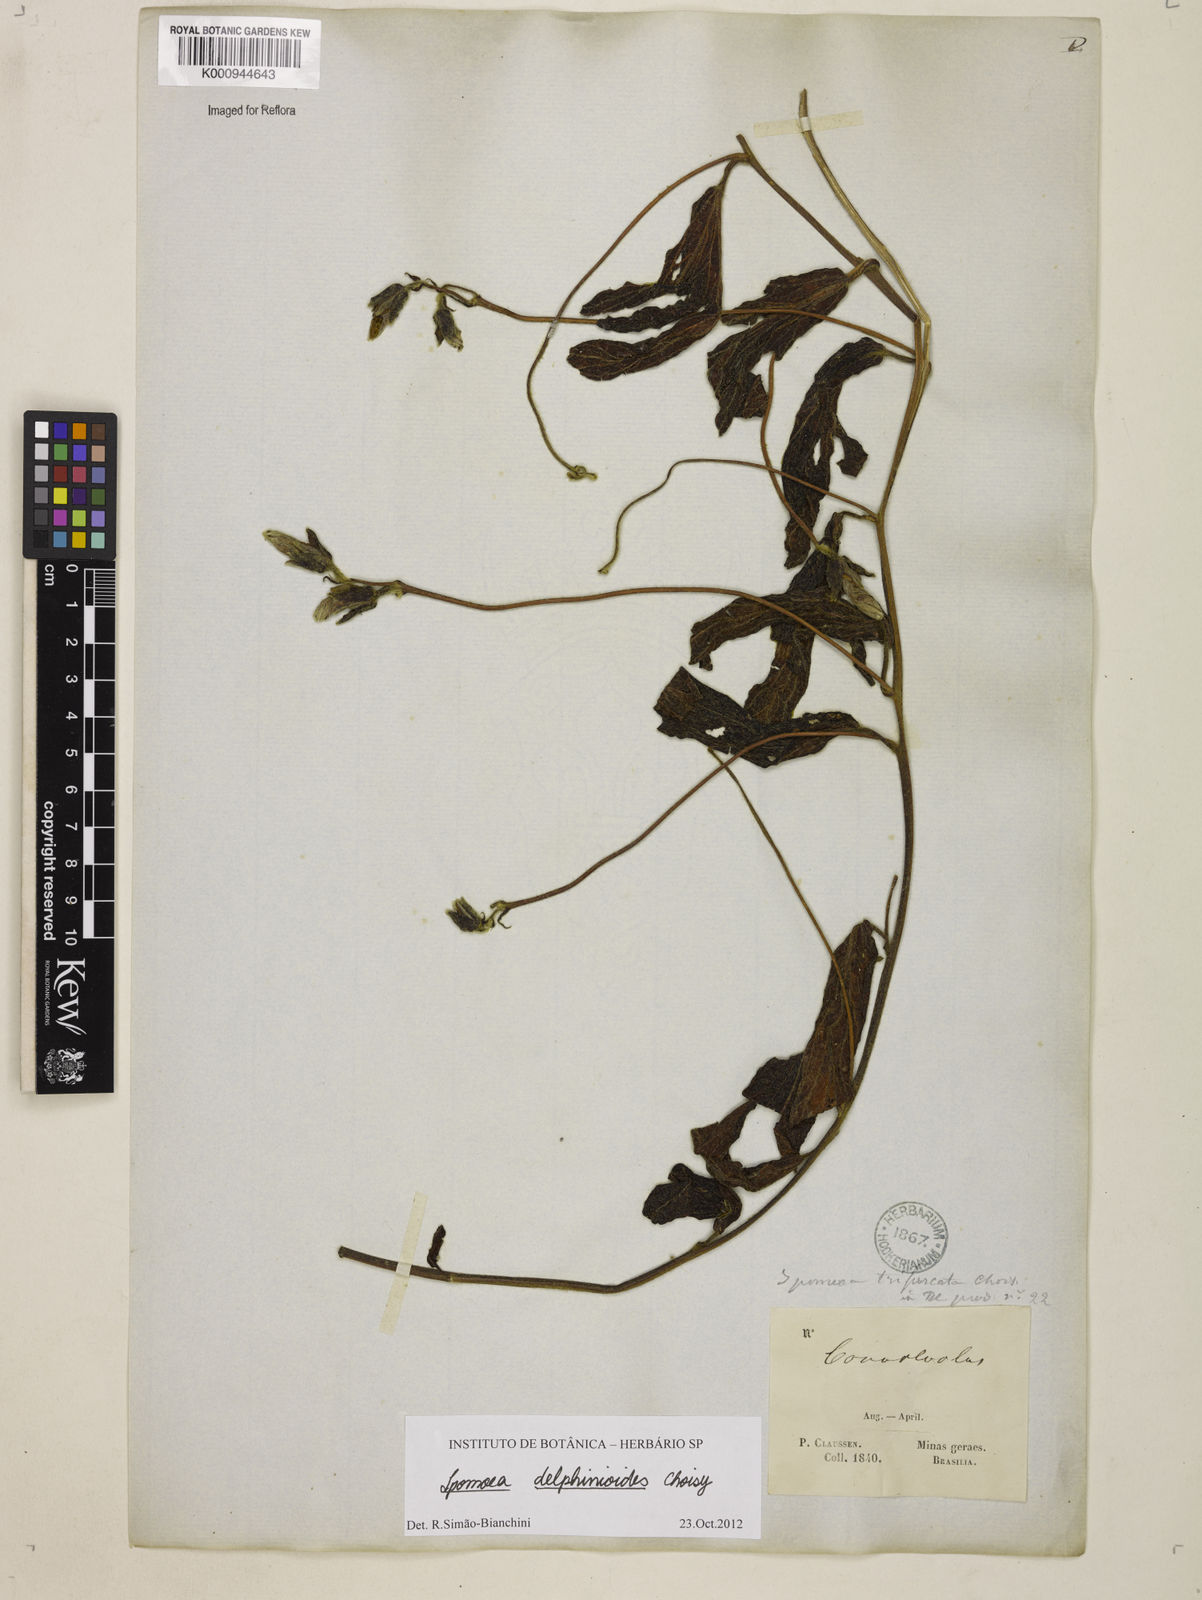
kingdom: Plantae
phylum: Tracheophyta
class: Magnoliopsida
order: Solanales
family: Convolvulaceae
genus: Ipomoea
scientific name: Ipomoea delphinioides
